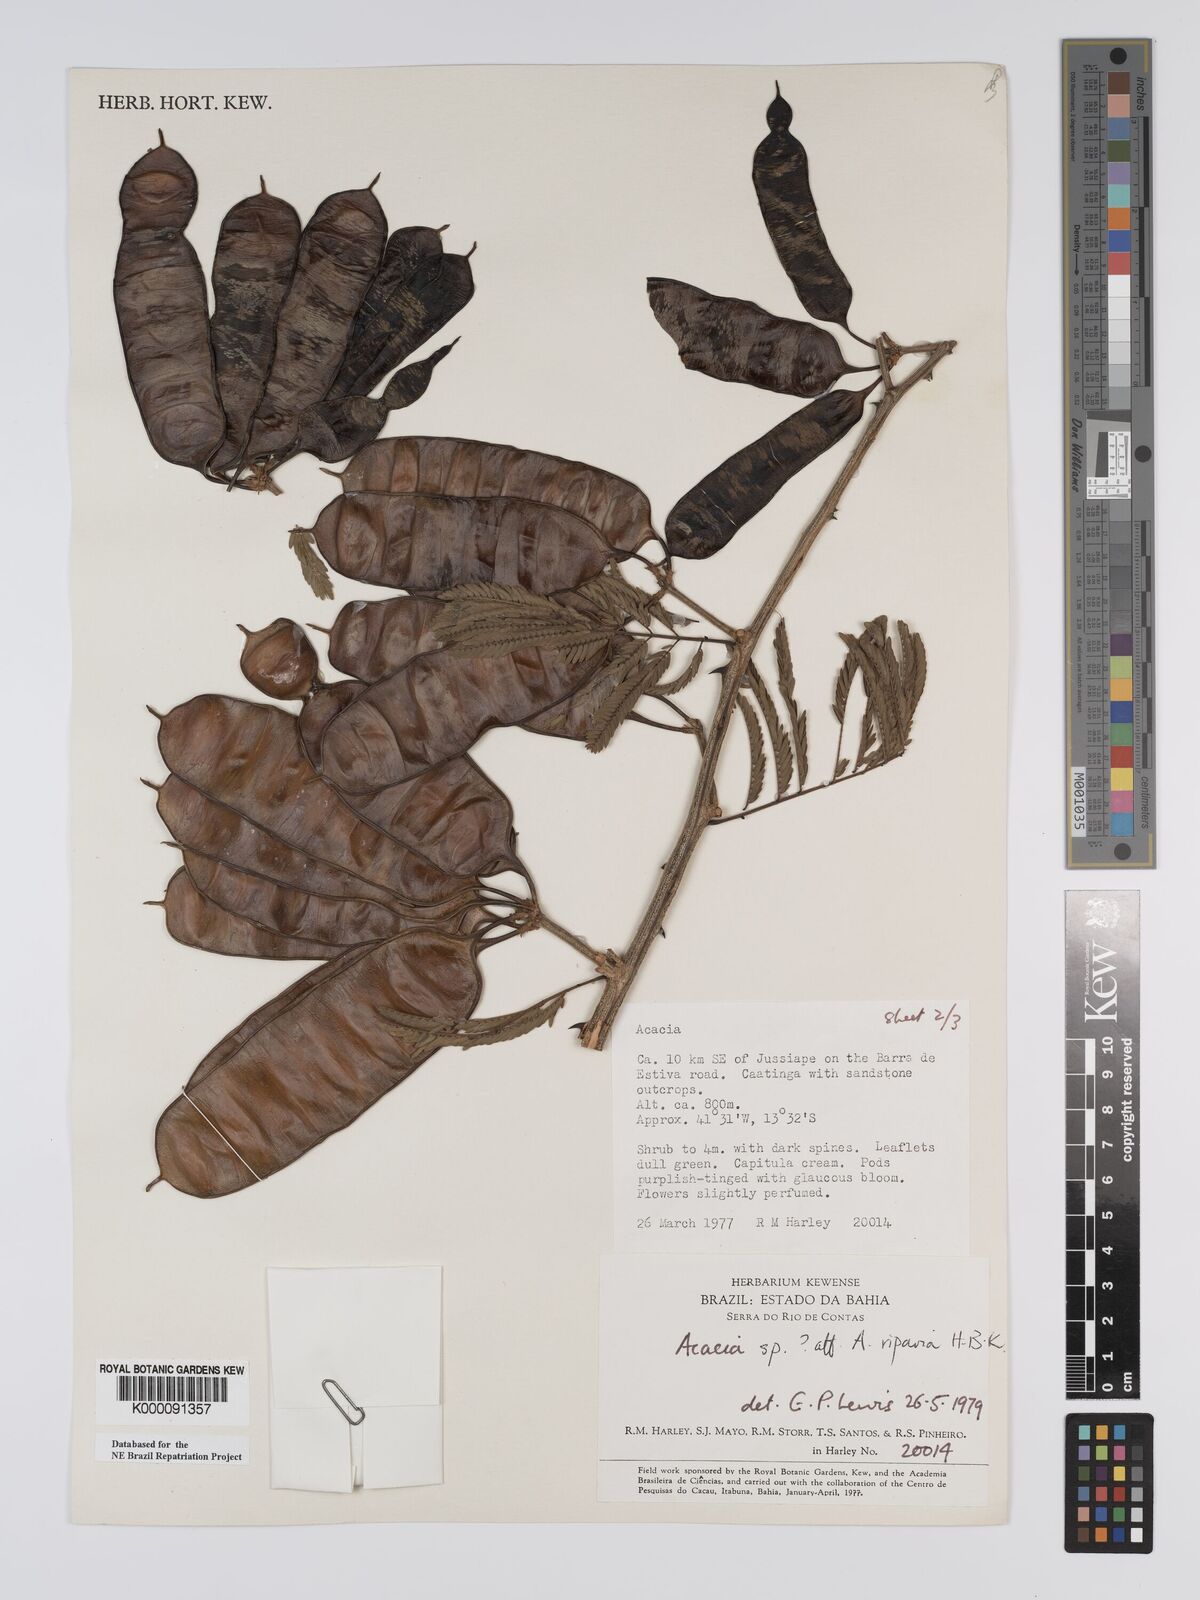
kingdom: Plantae
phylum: Tracheophyta
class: Magnoliopsida
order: Fabales
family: Fabaceae
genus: Senegalia
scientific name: Senegalia riparia
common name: Catch-and-keep
